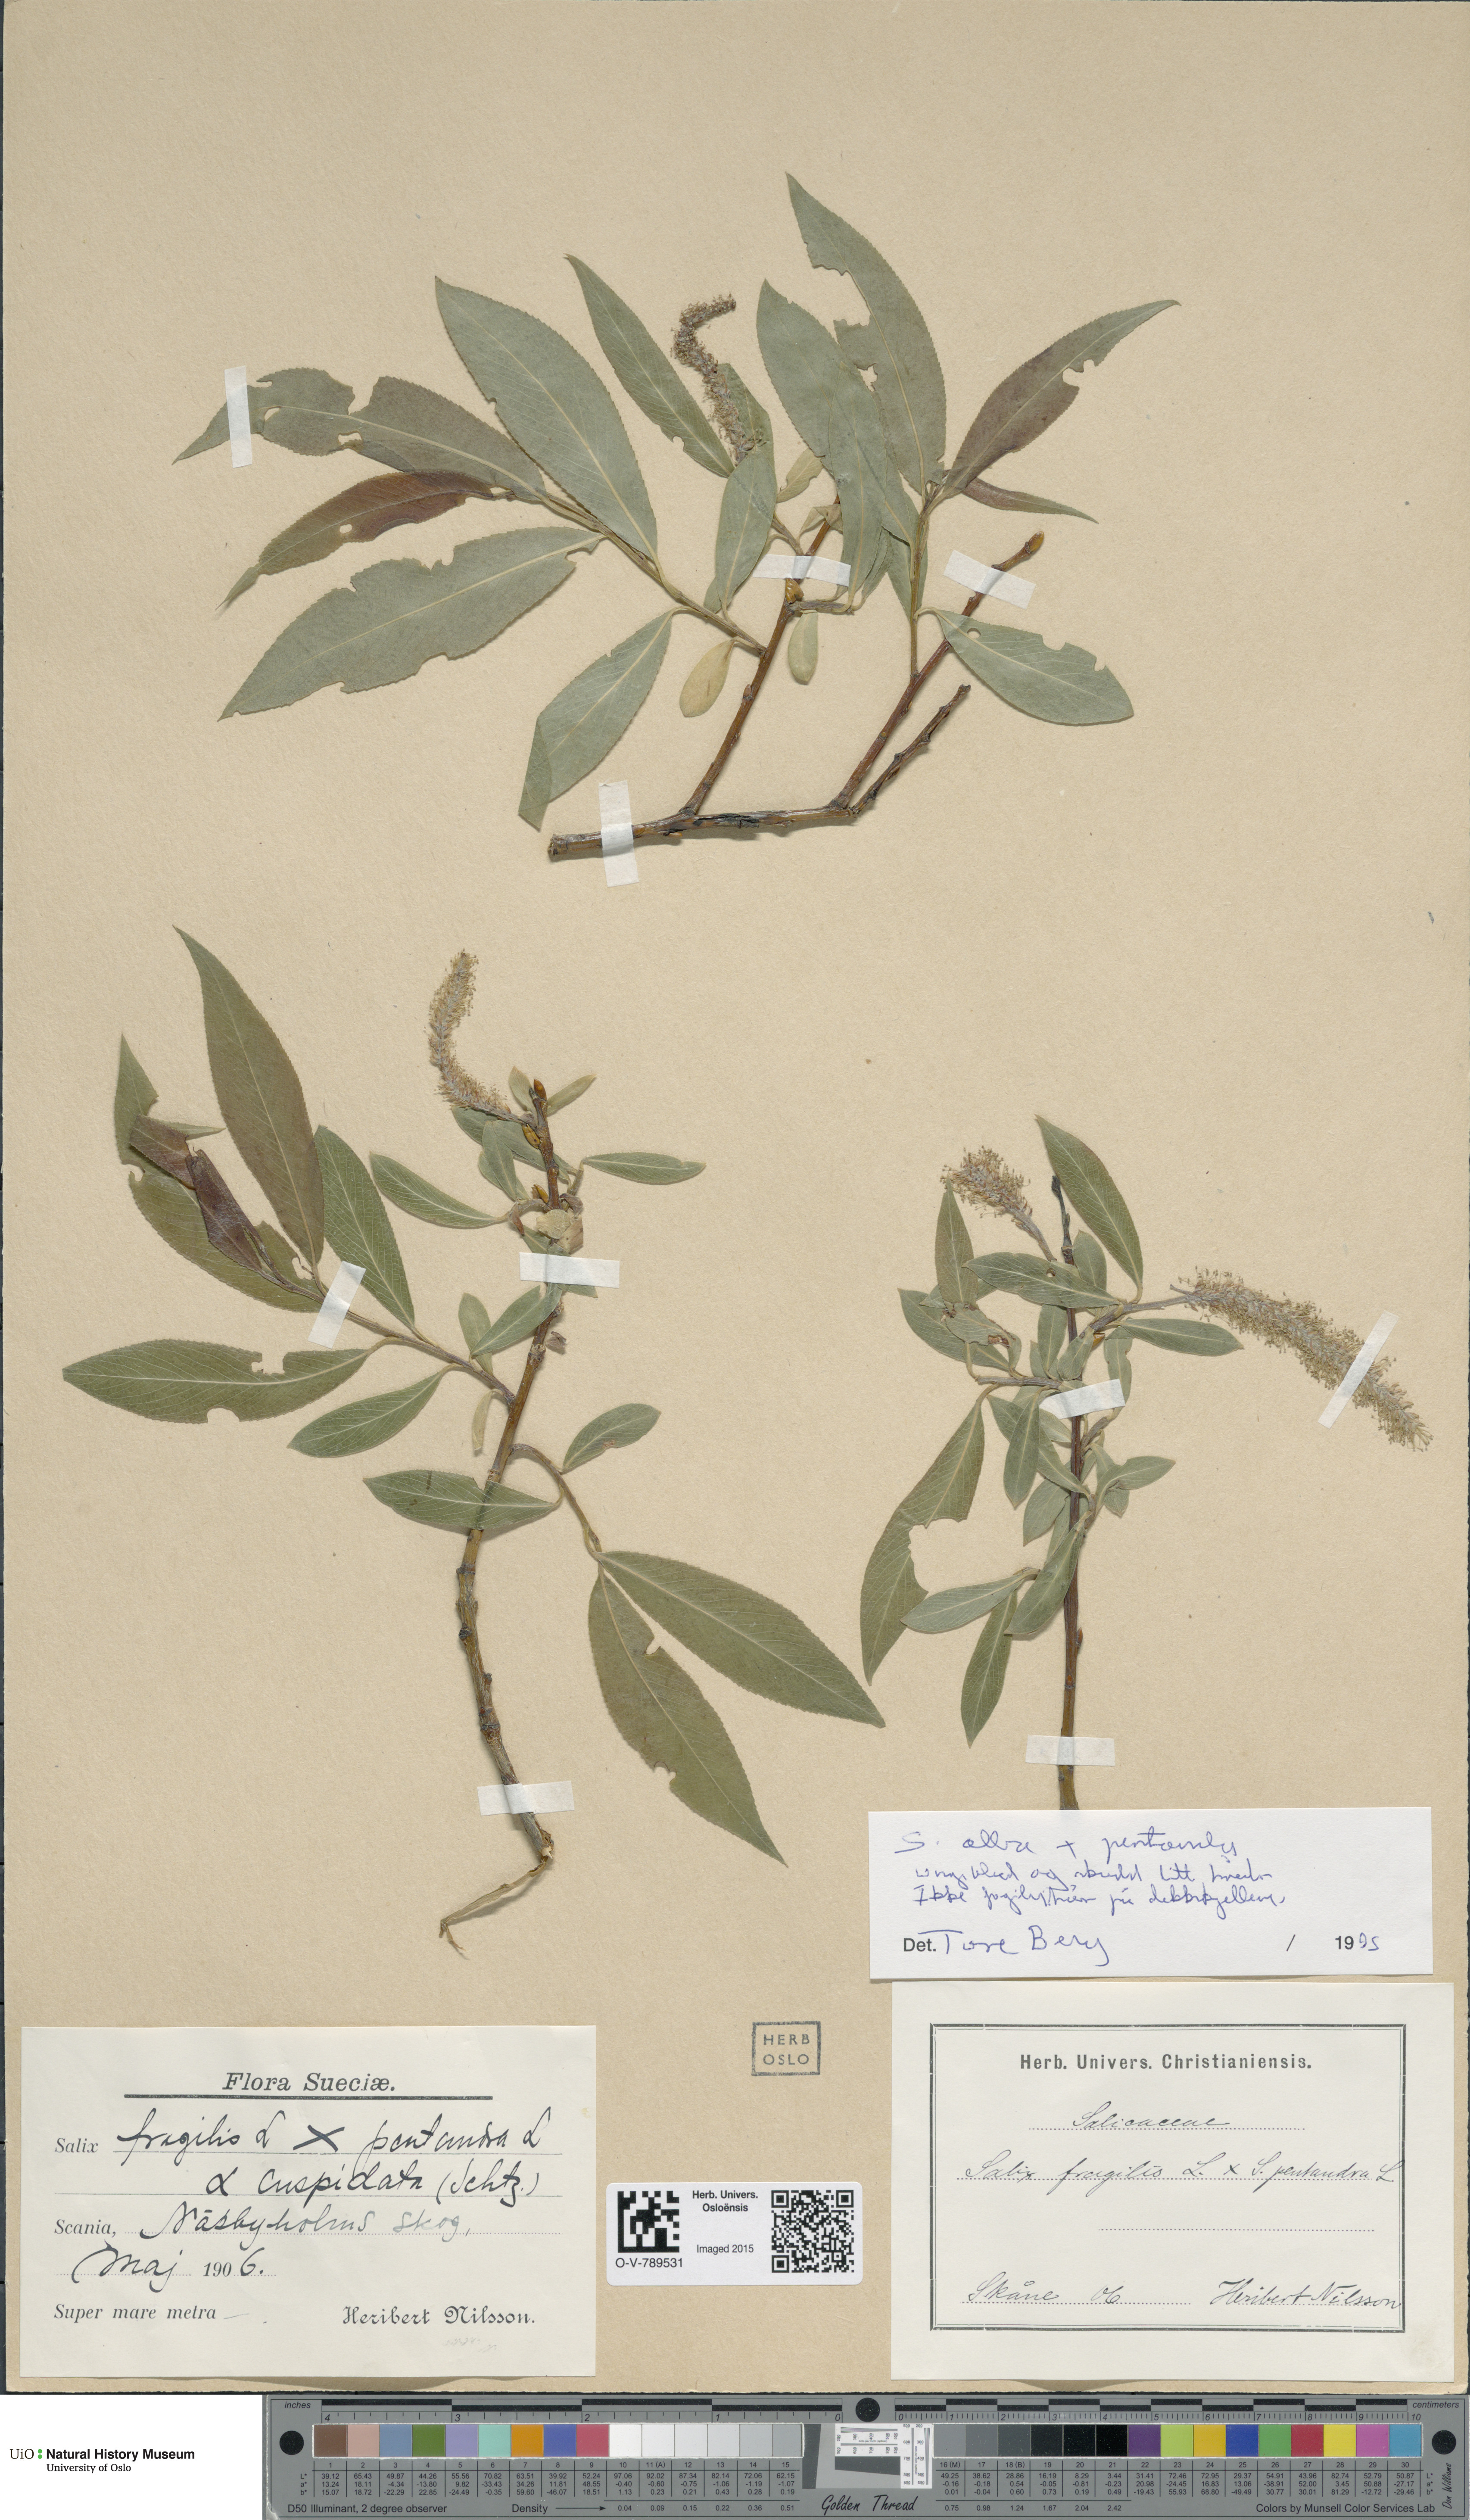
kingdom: Plantae
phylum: Tracheophyta
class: Magnoliopsida
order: Malpighiales
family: Salicaceae
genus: Salix
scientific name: Salix
